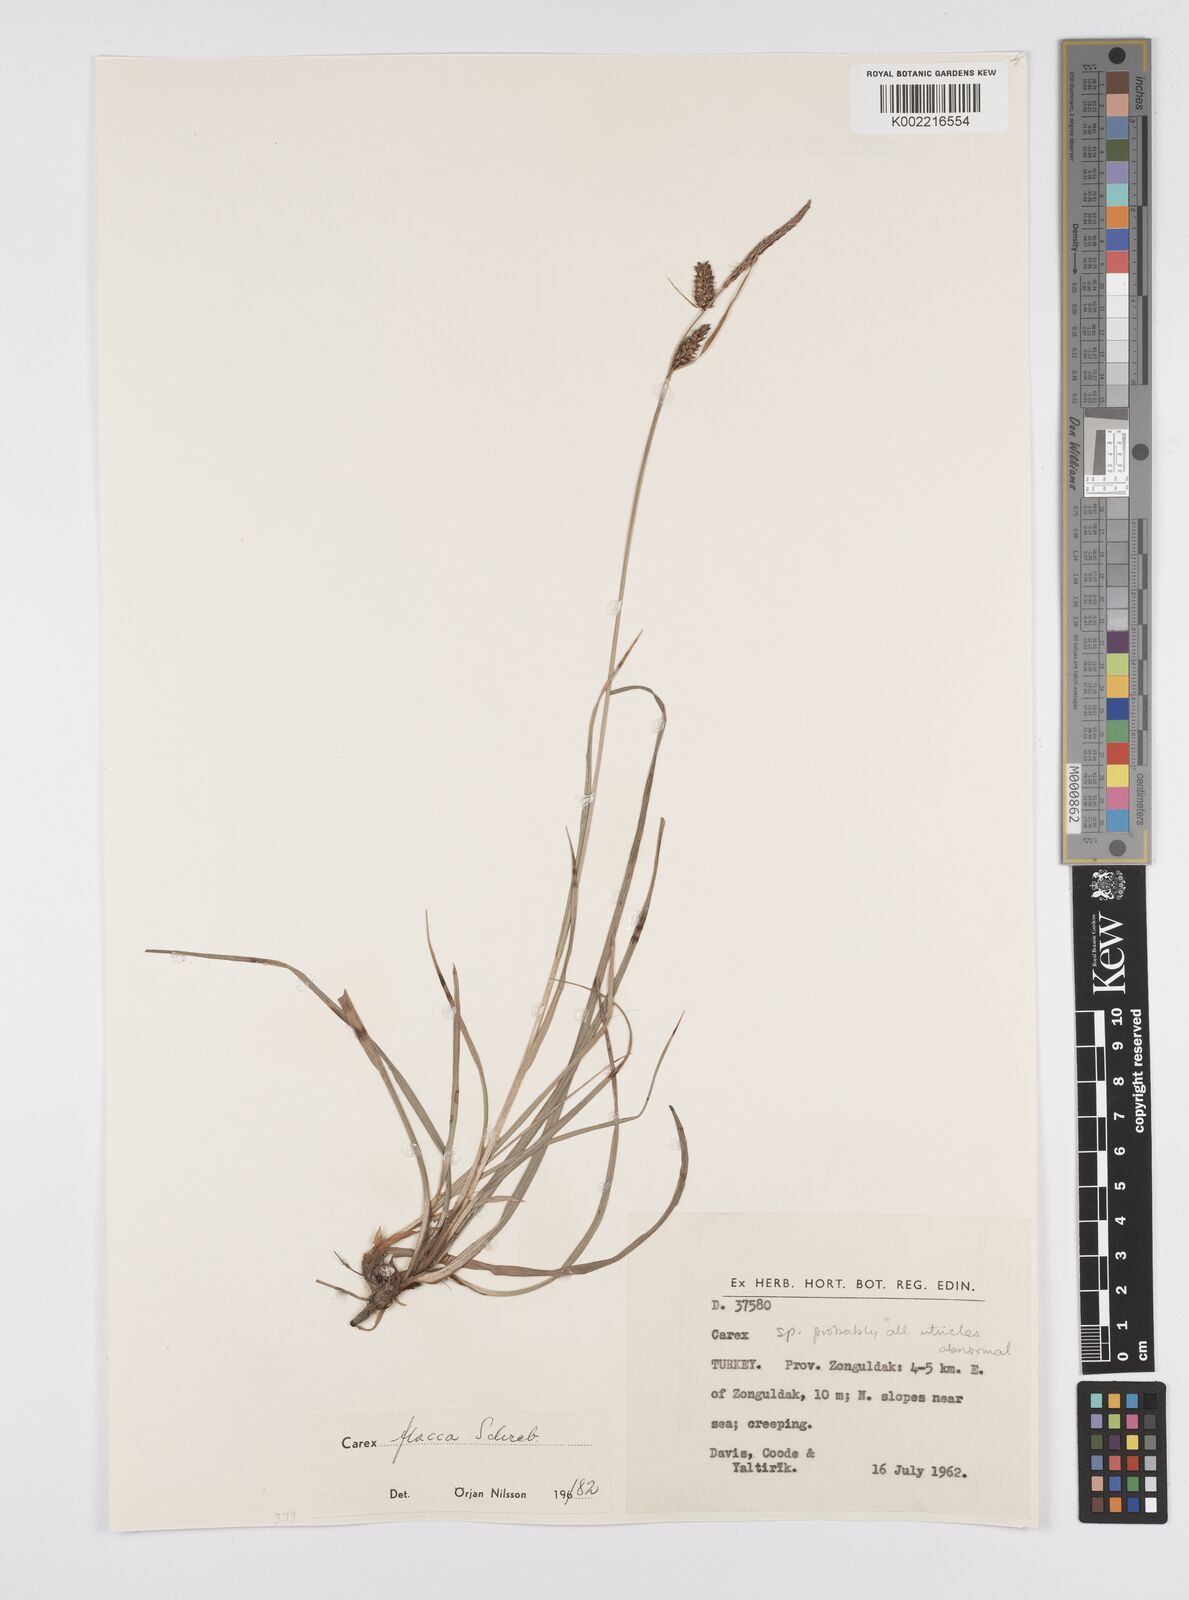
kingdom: Plantae
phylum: Tracheophyta
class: Liliopsida
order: Poales
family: Cyperaceae
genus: Carex
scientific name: Carex flacca
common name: Glaucous sedge
